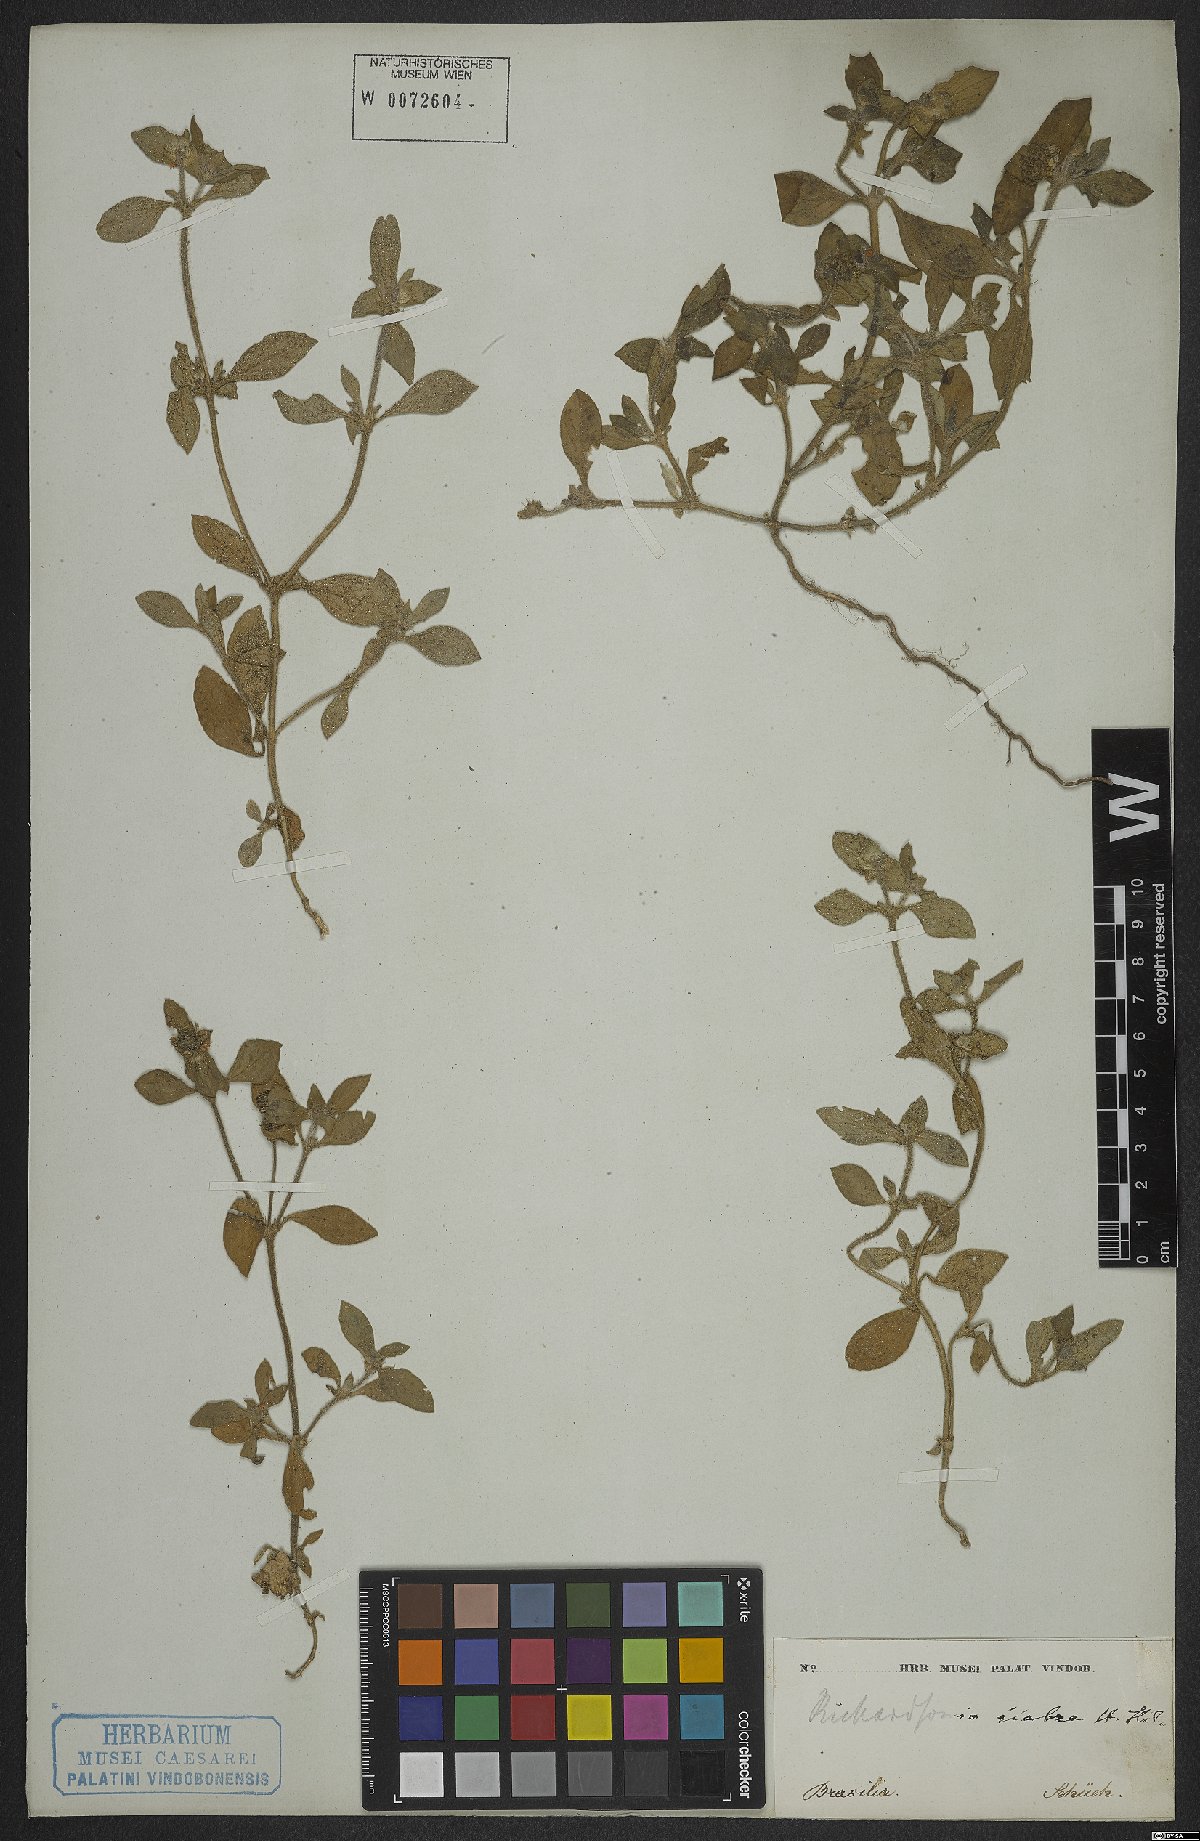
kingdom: Plantae
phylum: Tracheophyta
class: Magnoliopsida
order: Gentianales
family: Rubiaceae
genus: Richardia
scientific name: Richardia scabra
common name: Rough mexican clover
